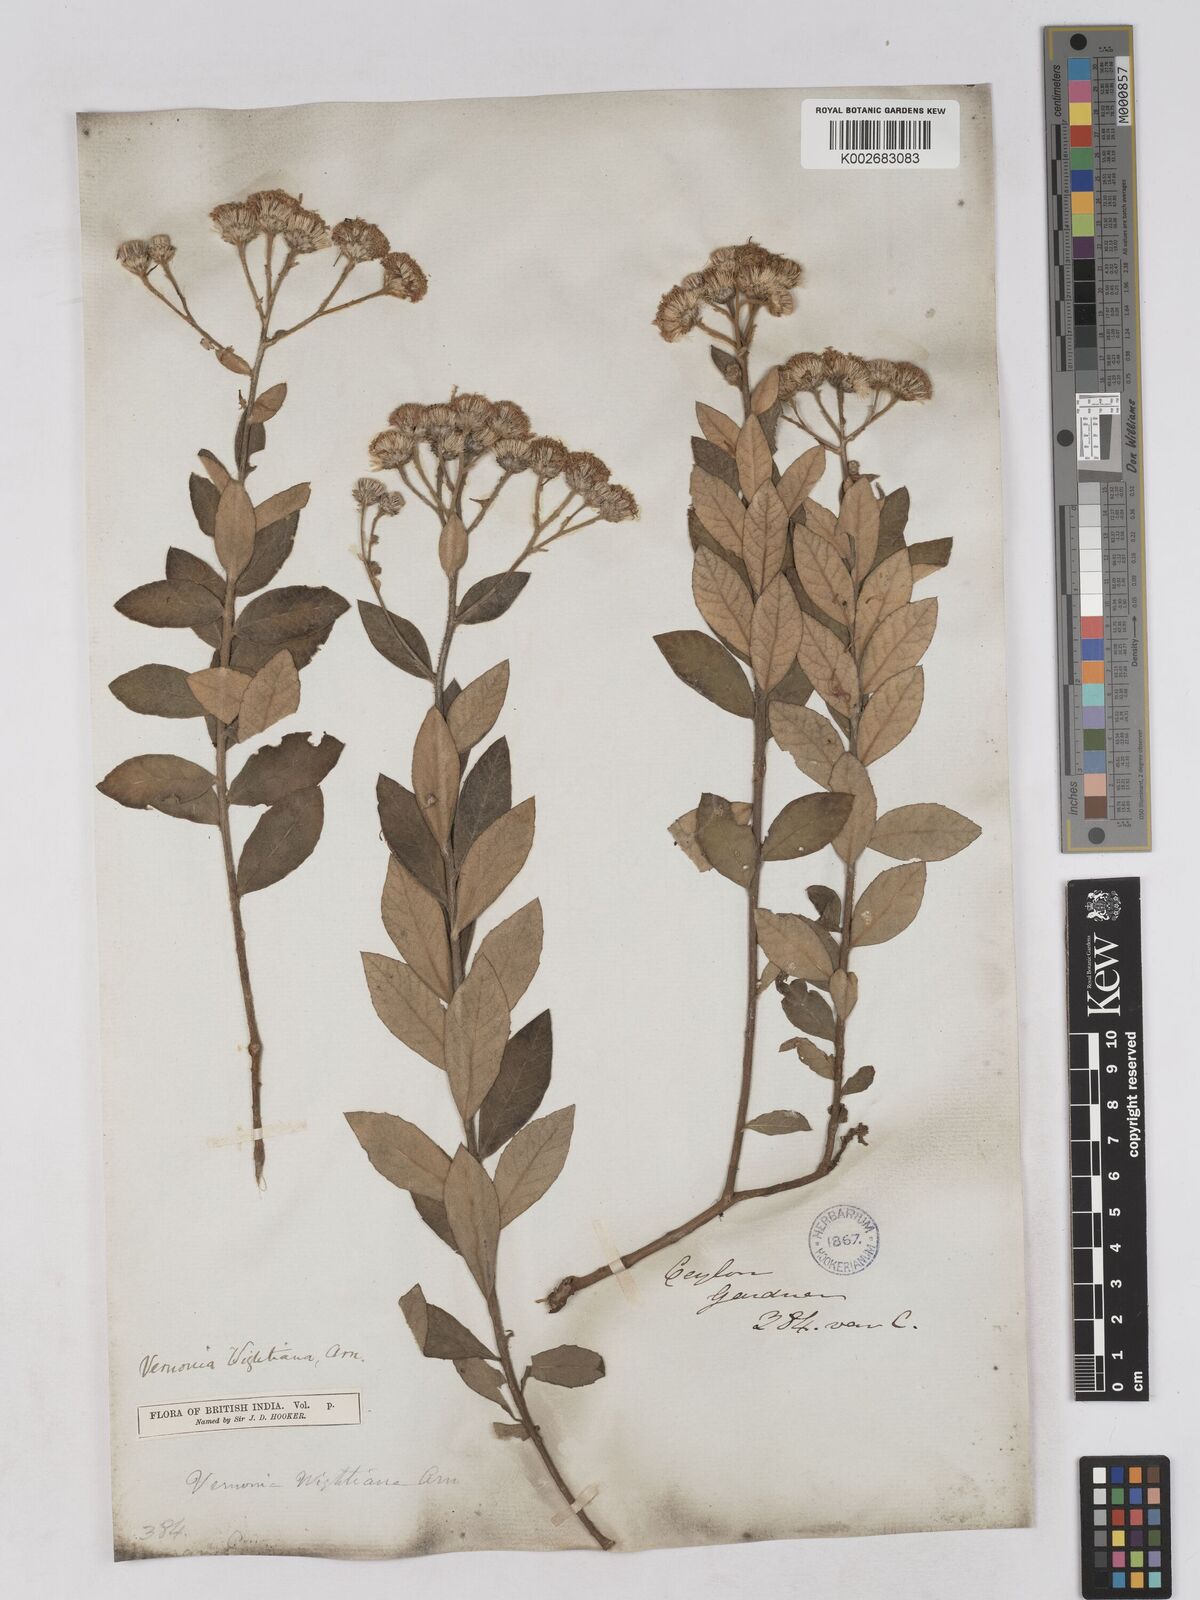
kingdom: Plantae
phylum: Tracheophyta
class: Magnoliopsida
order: Asterales
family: Asteraceae
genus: Uniyala
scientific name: Uniyala wightiana
